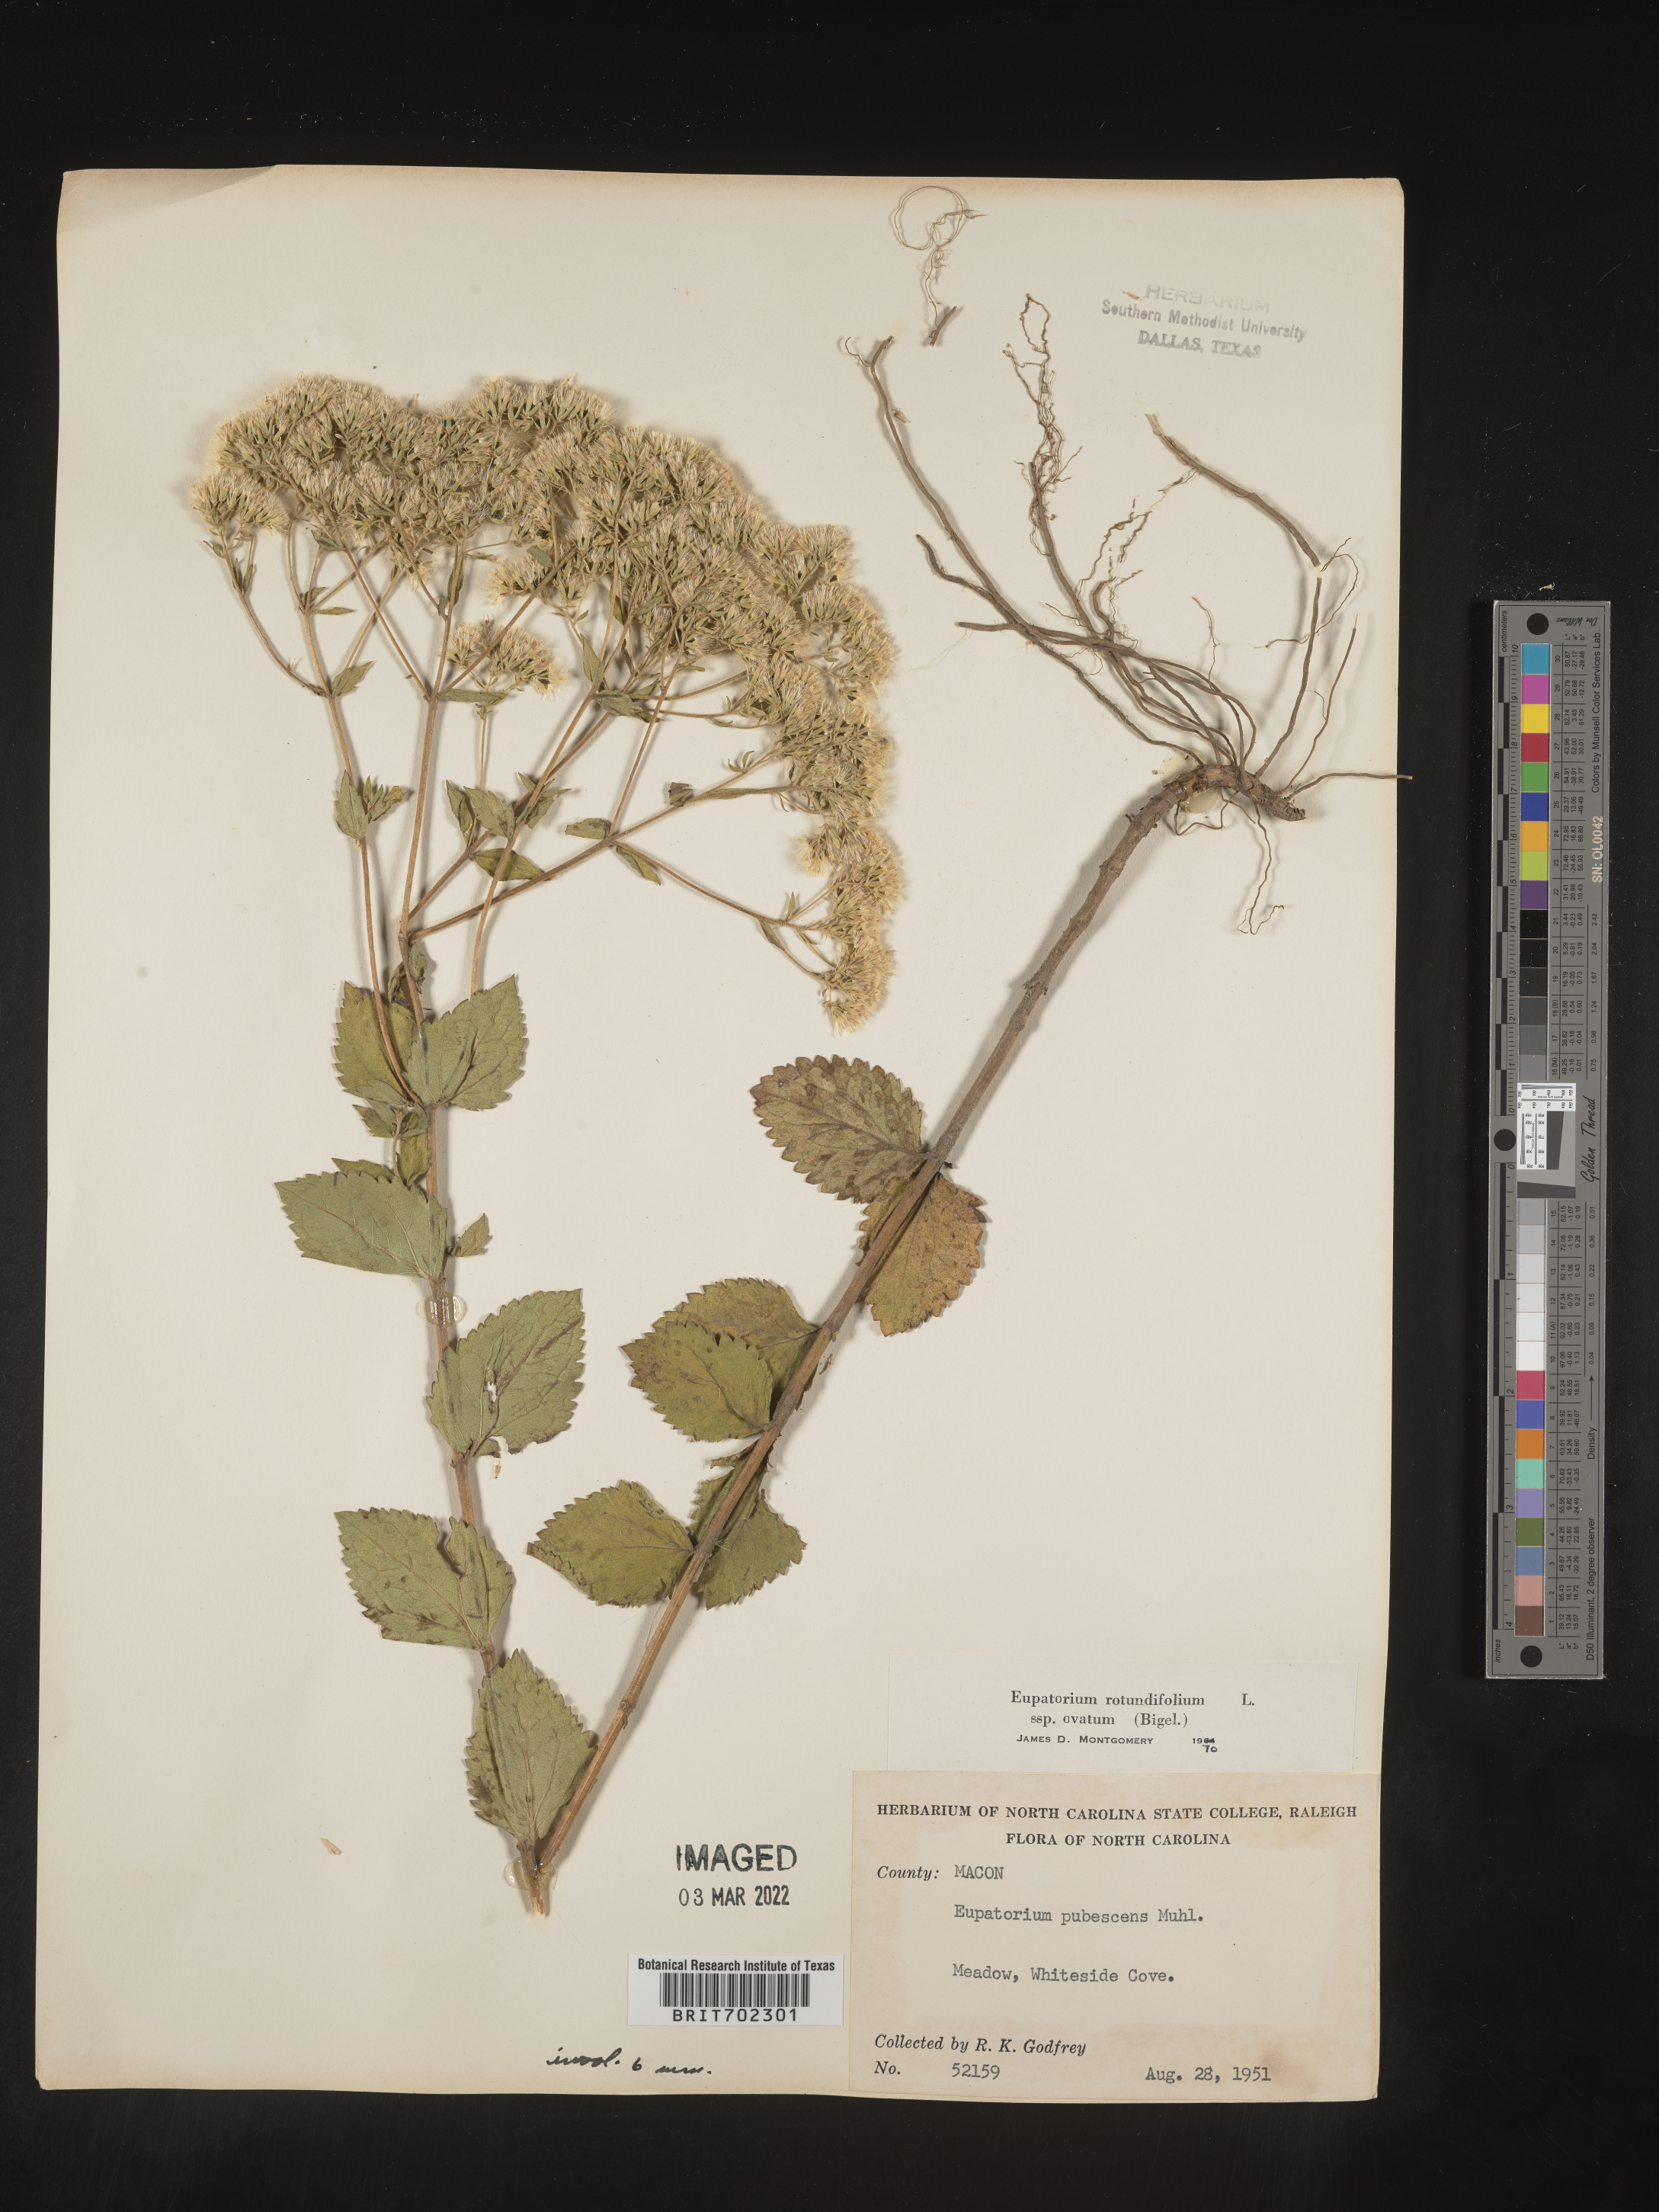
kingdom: Plantae
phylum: Tracheophyta
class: Magnoliopsida
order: Asterales
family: Asteraceae
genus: Eupatorium
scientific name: Eupatorium rotundifolium
